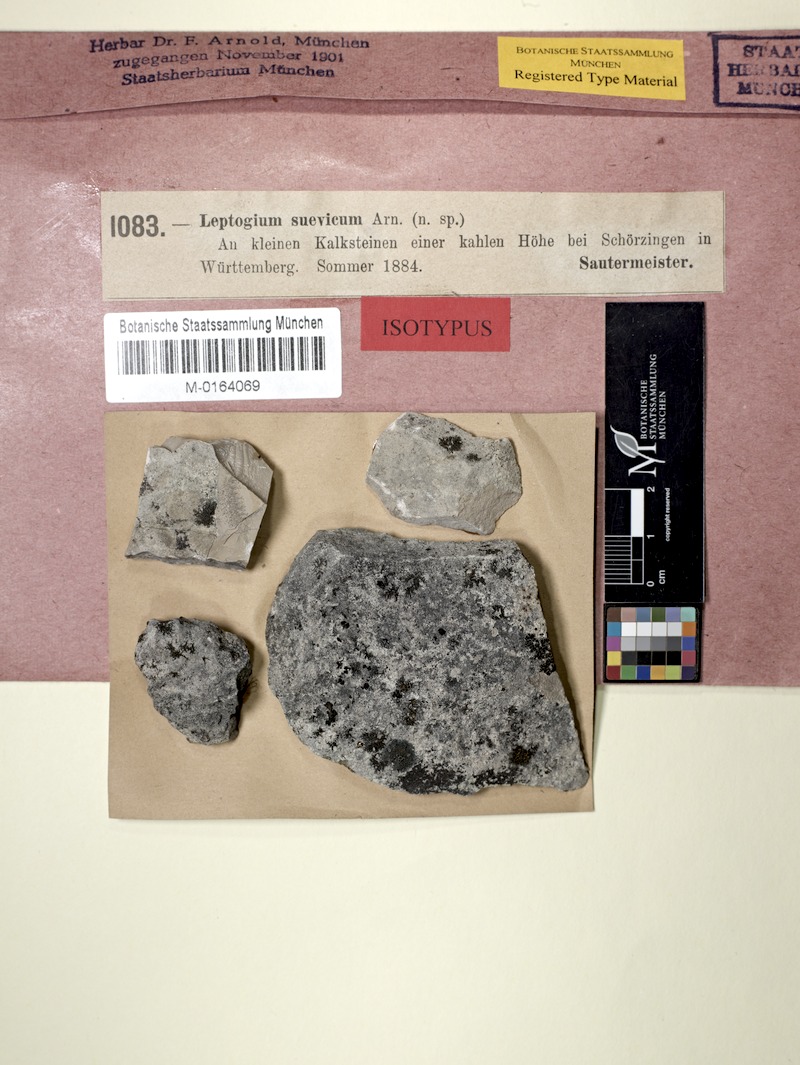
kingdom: Fungi
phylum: Ascomycota
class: Lecanoromycetes
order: Peltigerales
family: Collemataceae
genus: Scytinium
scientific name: Scytinium massiliense
